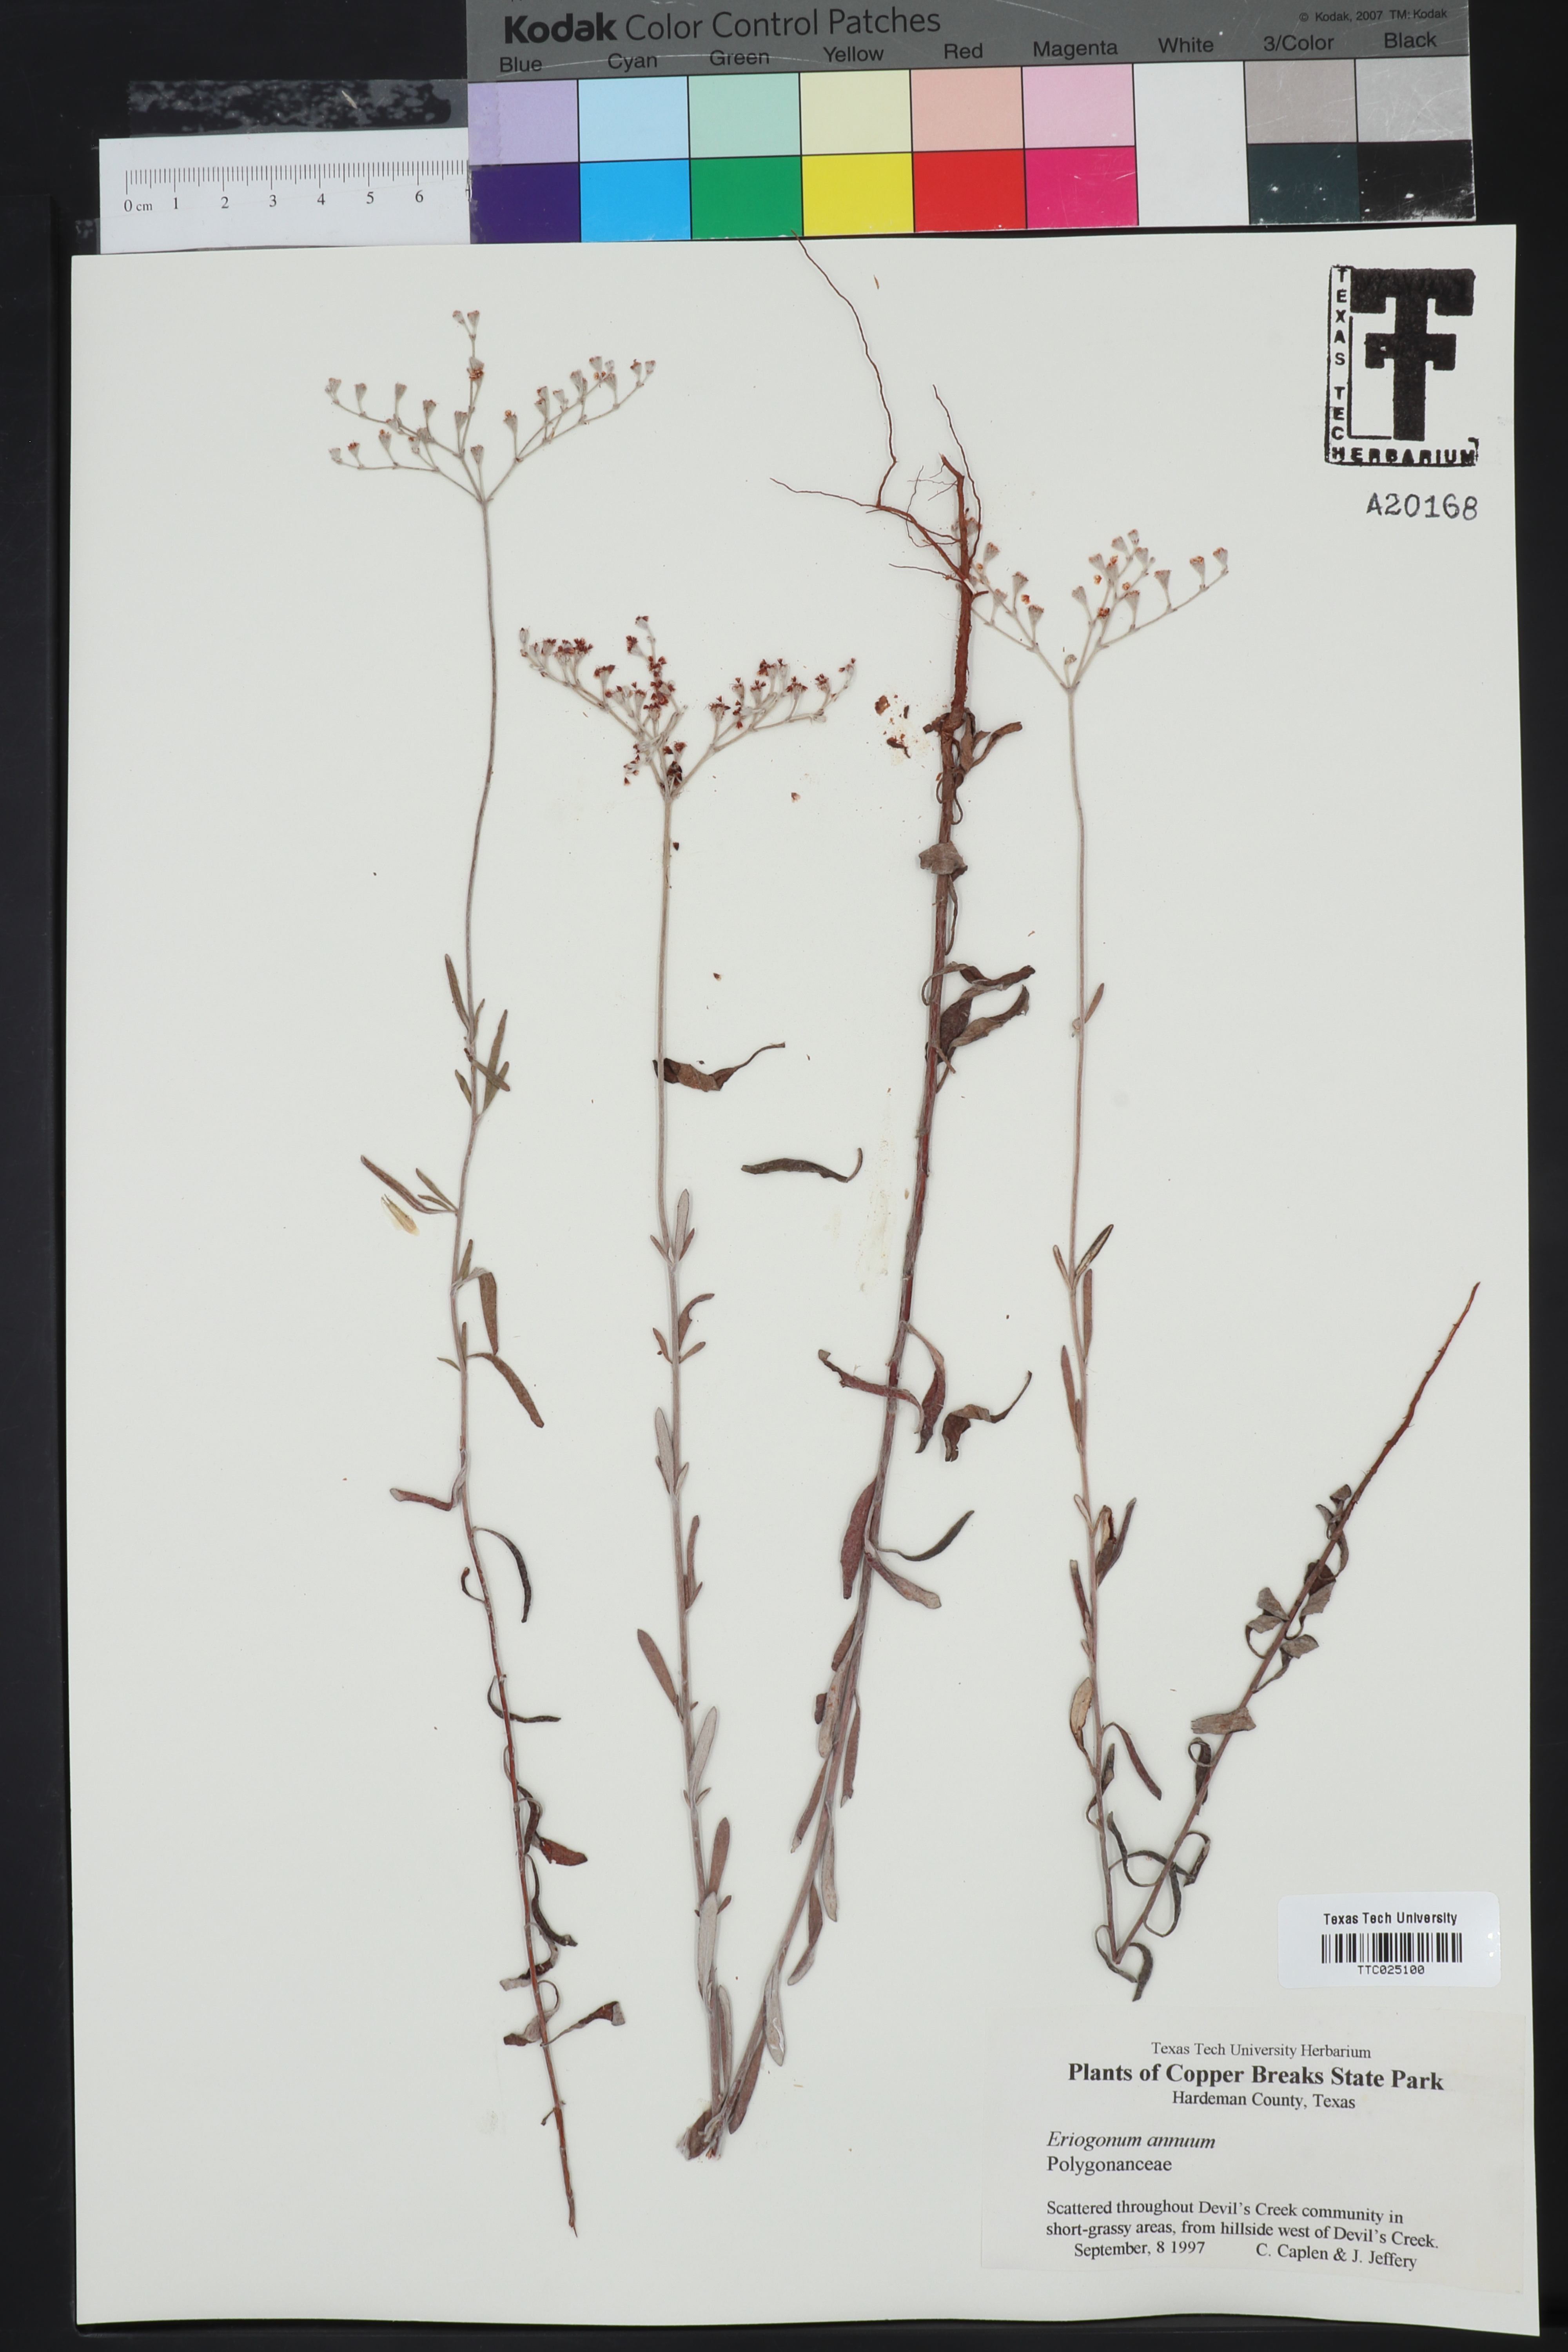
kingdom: Plantae
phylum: Tracheophyta
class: Magnoliopsida
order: Caryophyllales
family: Polygonaceae
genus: Eriogonum
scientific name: Eriogonum annuum
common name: Annual wild buckwheat
